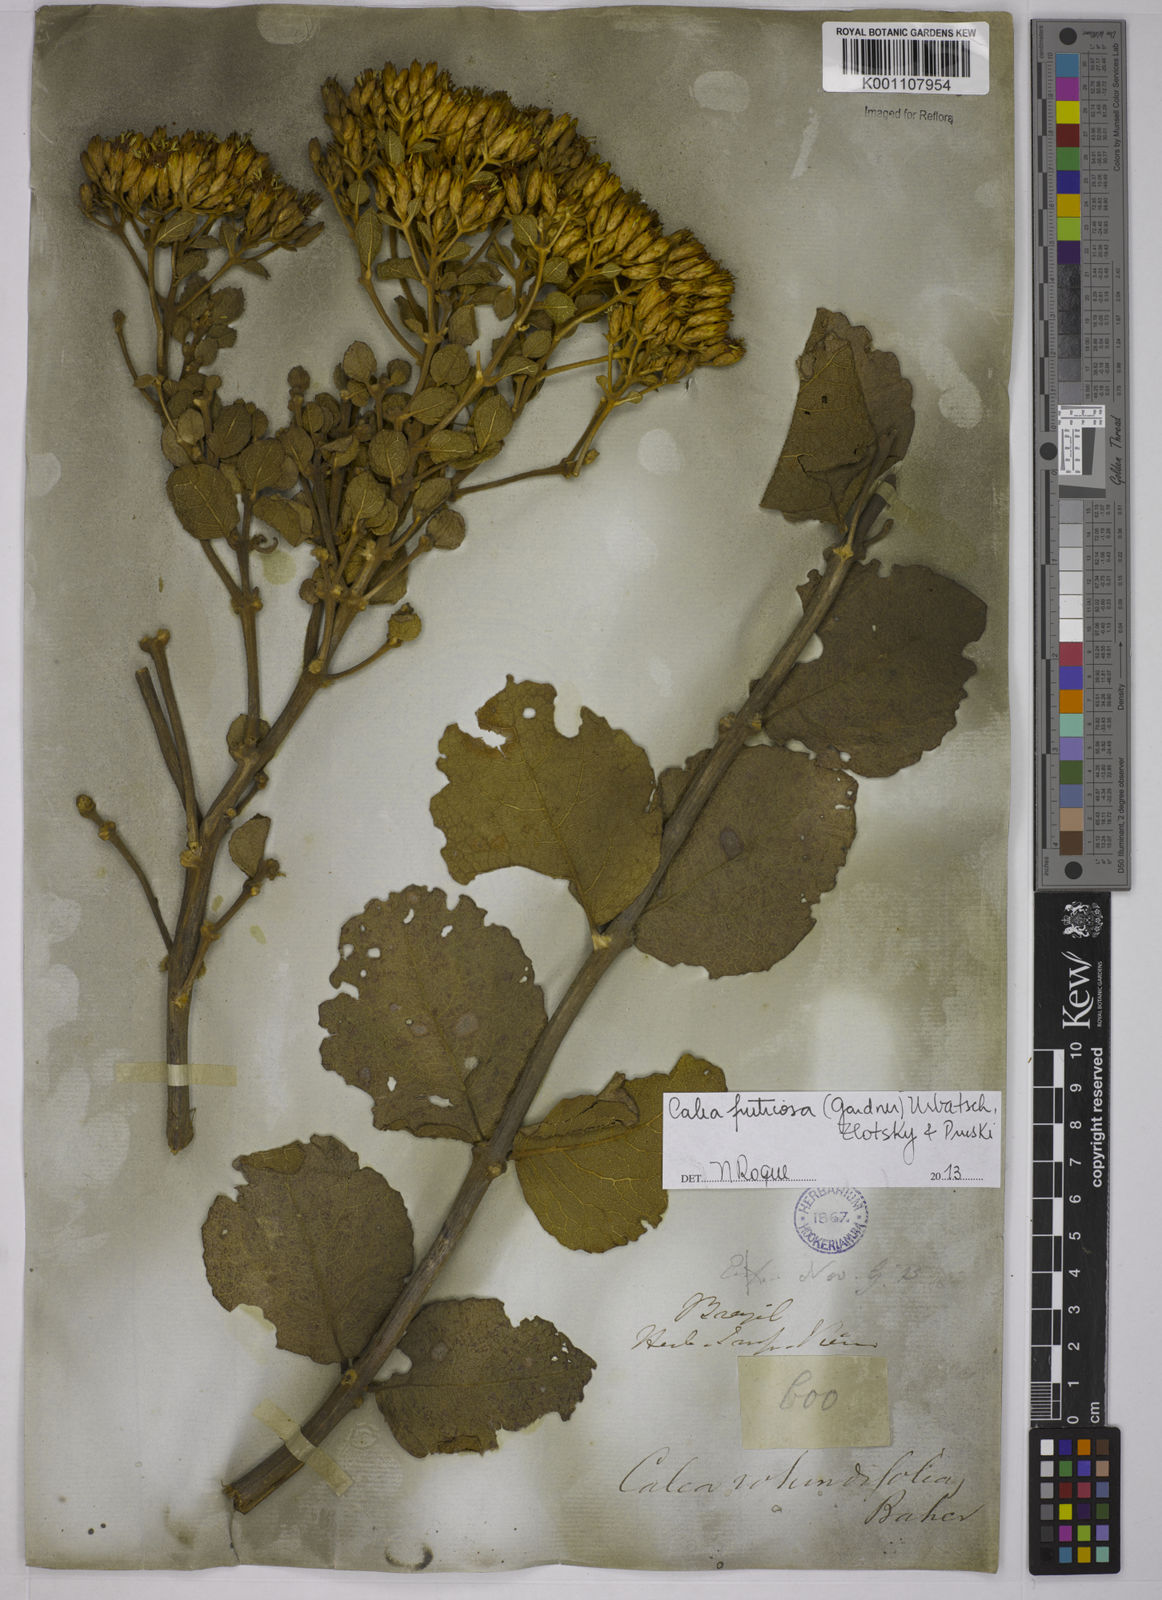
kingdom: Plantae
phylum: Tracheophyta
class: Magnoliopsida
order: Asterales
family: Asteraceae
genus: Calea
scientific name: Calea fruticosa
